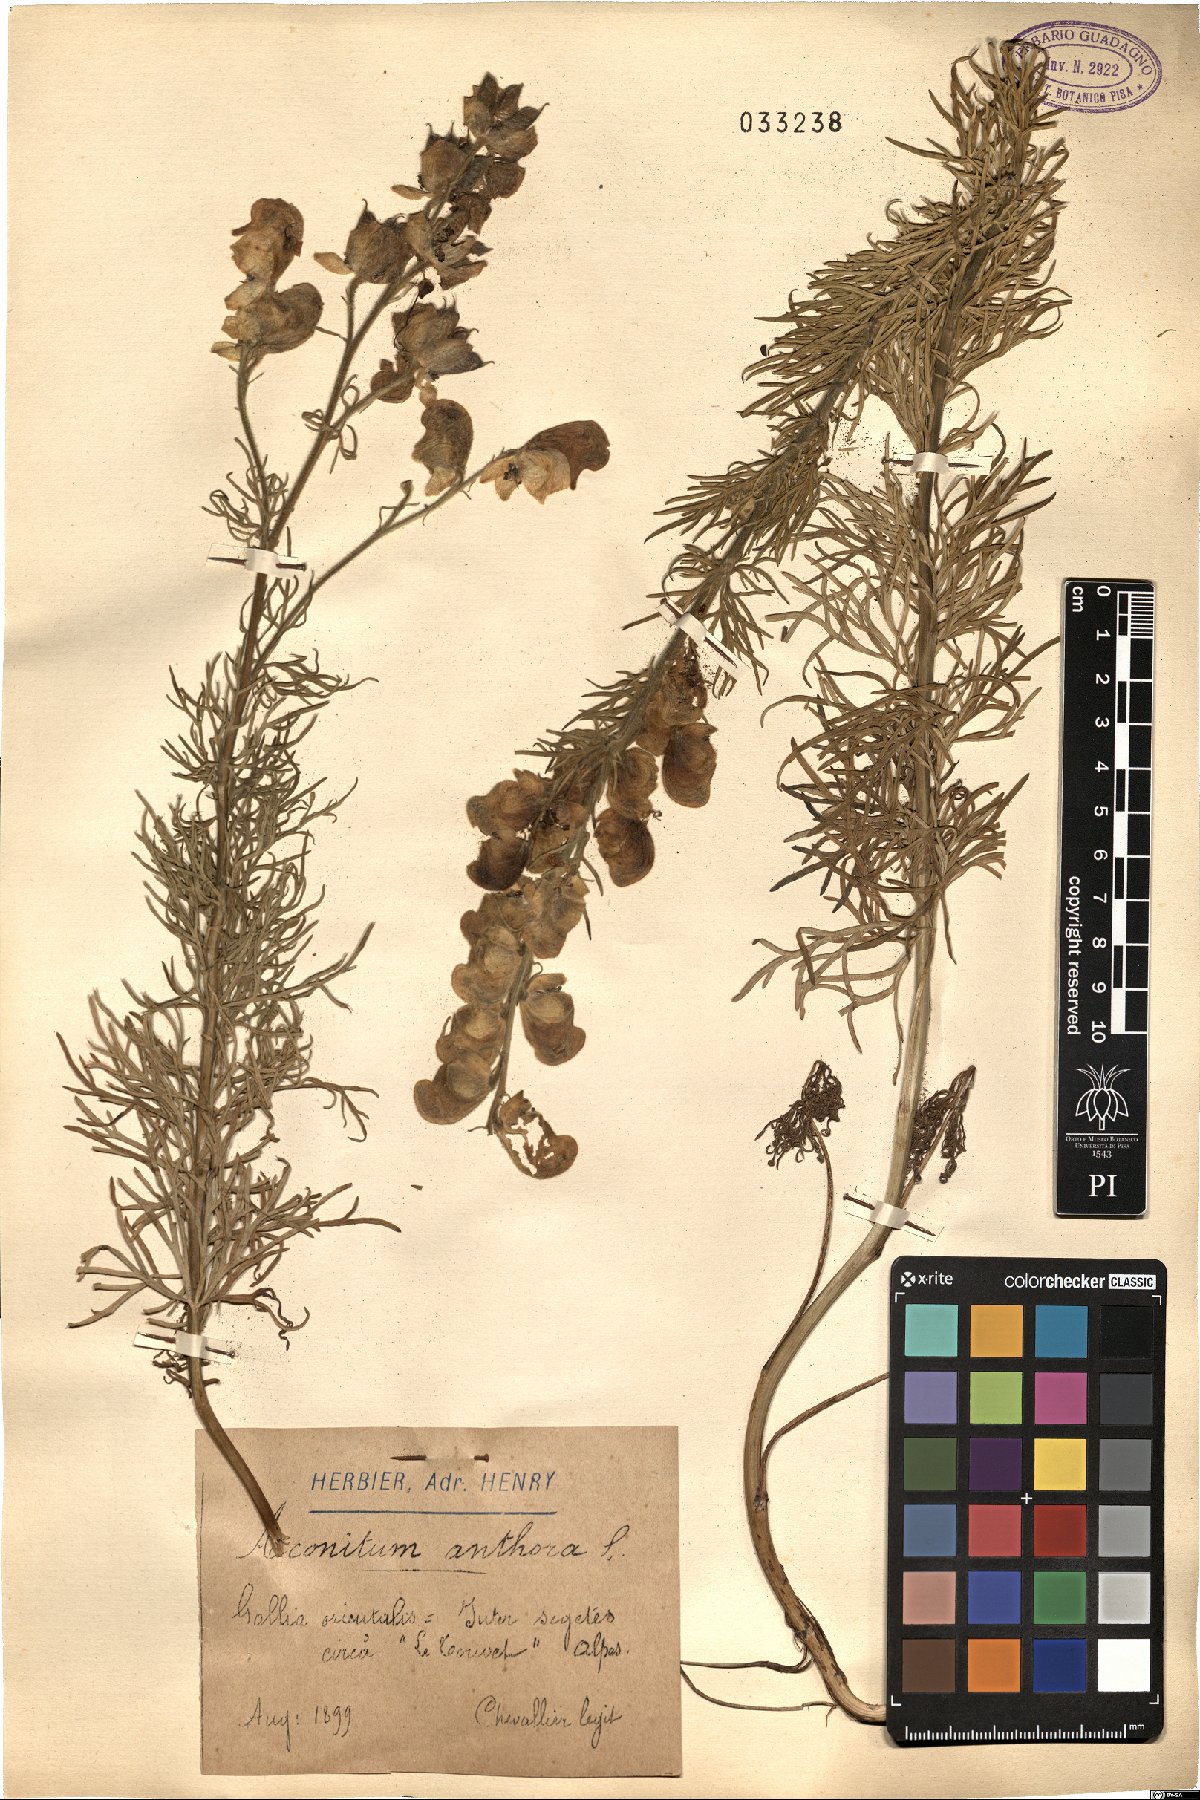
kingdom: Plantae
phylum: Tracheophyta
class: Magnoliopsida
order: Ranunculales
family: Ranunculaceae
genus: Aconitum
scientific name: Aconitum anthora
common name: Yellow monkshood
